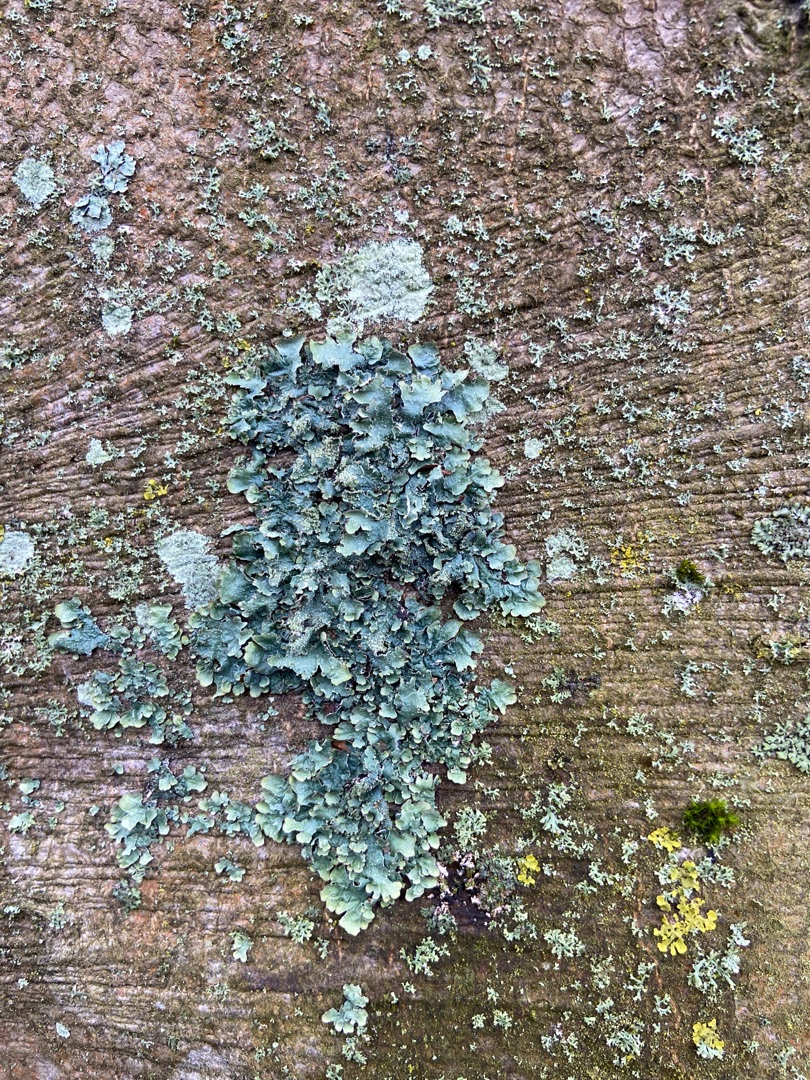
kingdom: Fungi
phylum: Ascomycota
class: Lecanoromycetes
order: Lecanorales
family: Parmeliaceae
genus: Parmelia
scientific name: Parmelia sulcata
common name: Rynket skållav
